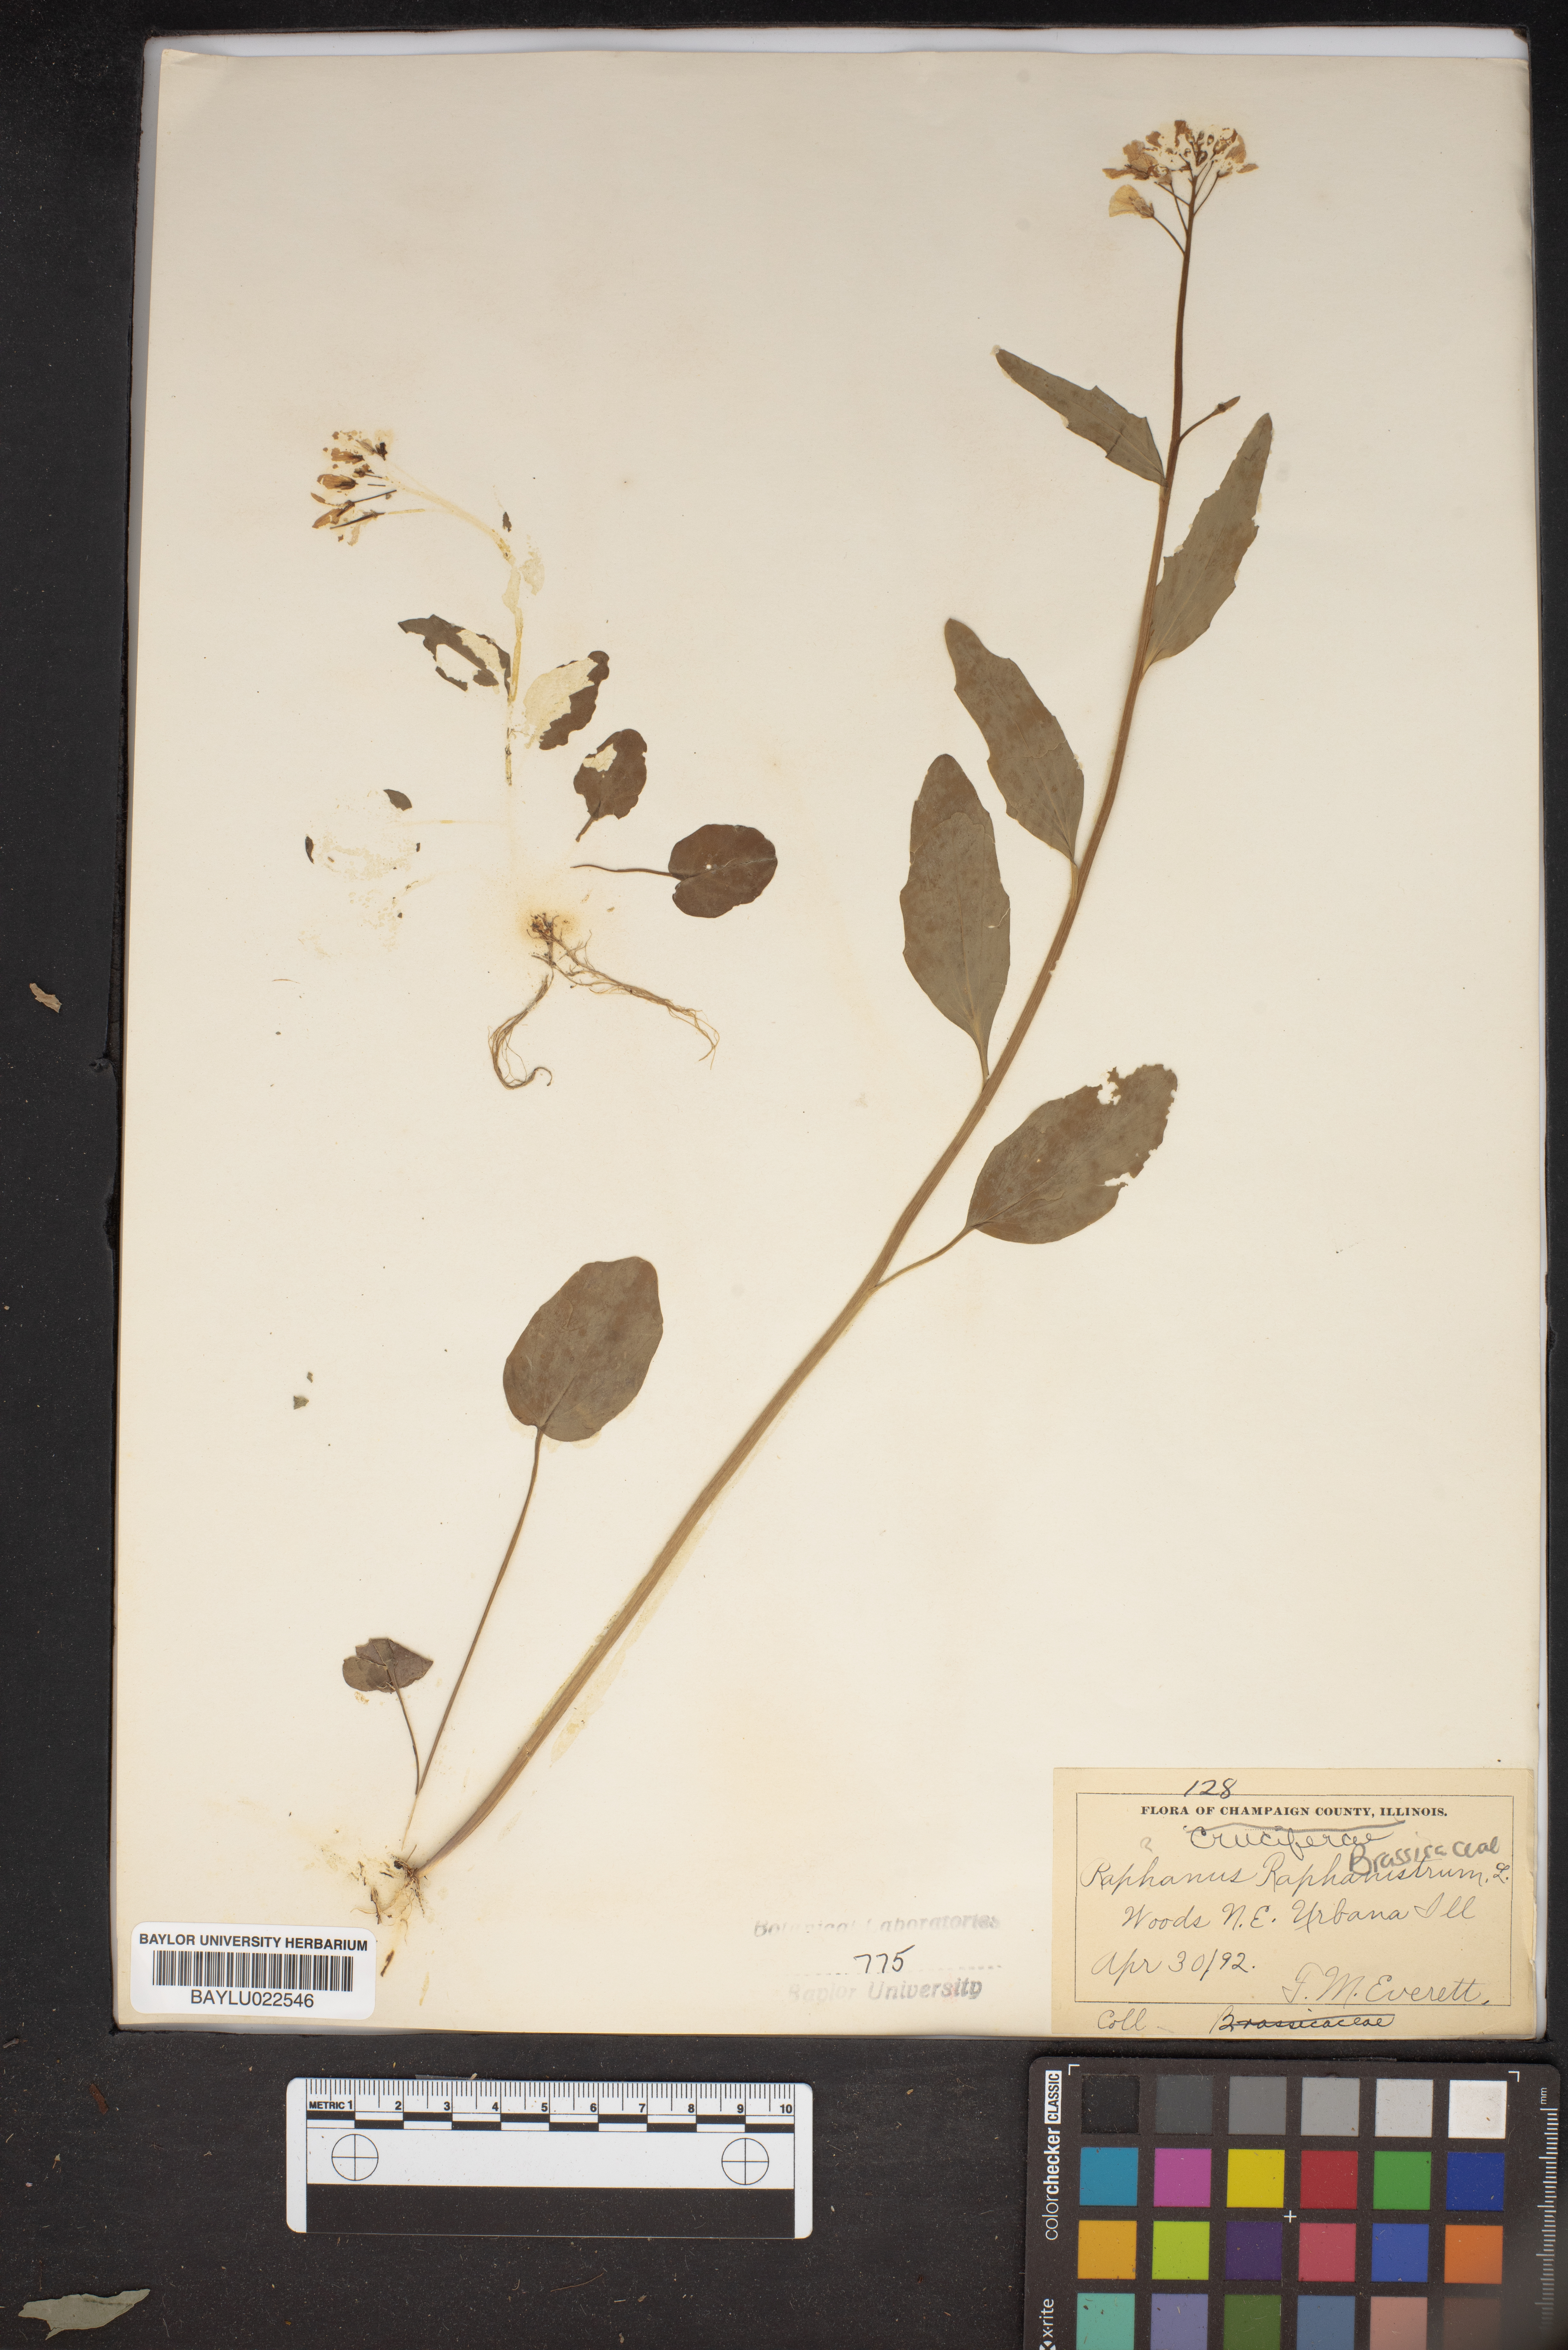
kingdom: Plantae
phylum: Tracheophyta
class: Magnoliopsida
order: Brassicales
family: Brassicaceae
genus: Raphanus
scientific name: Raphanus raphanistrum
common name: Wild radish
